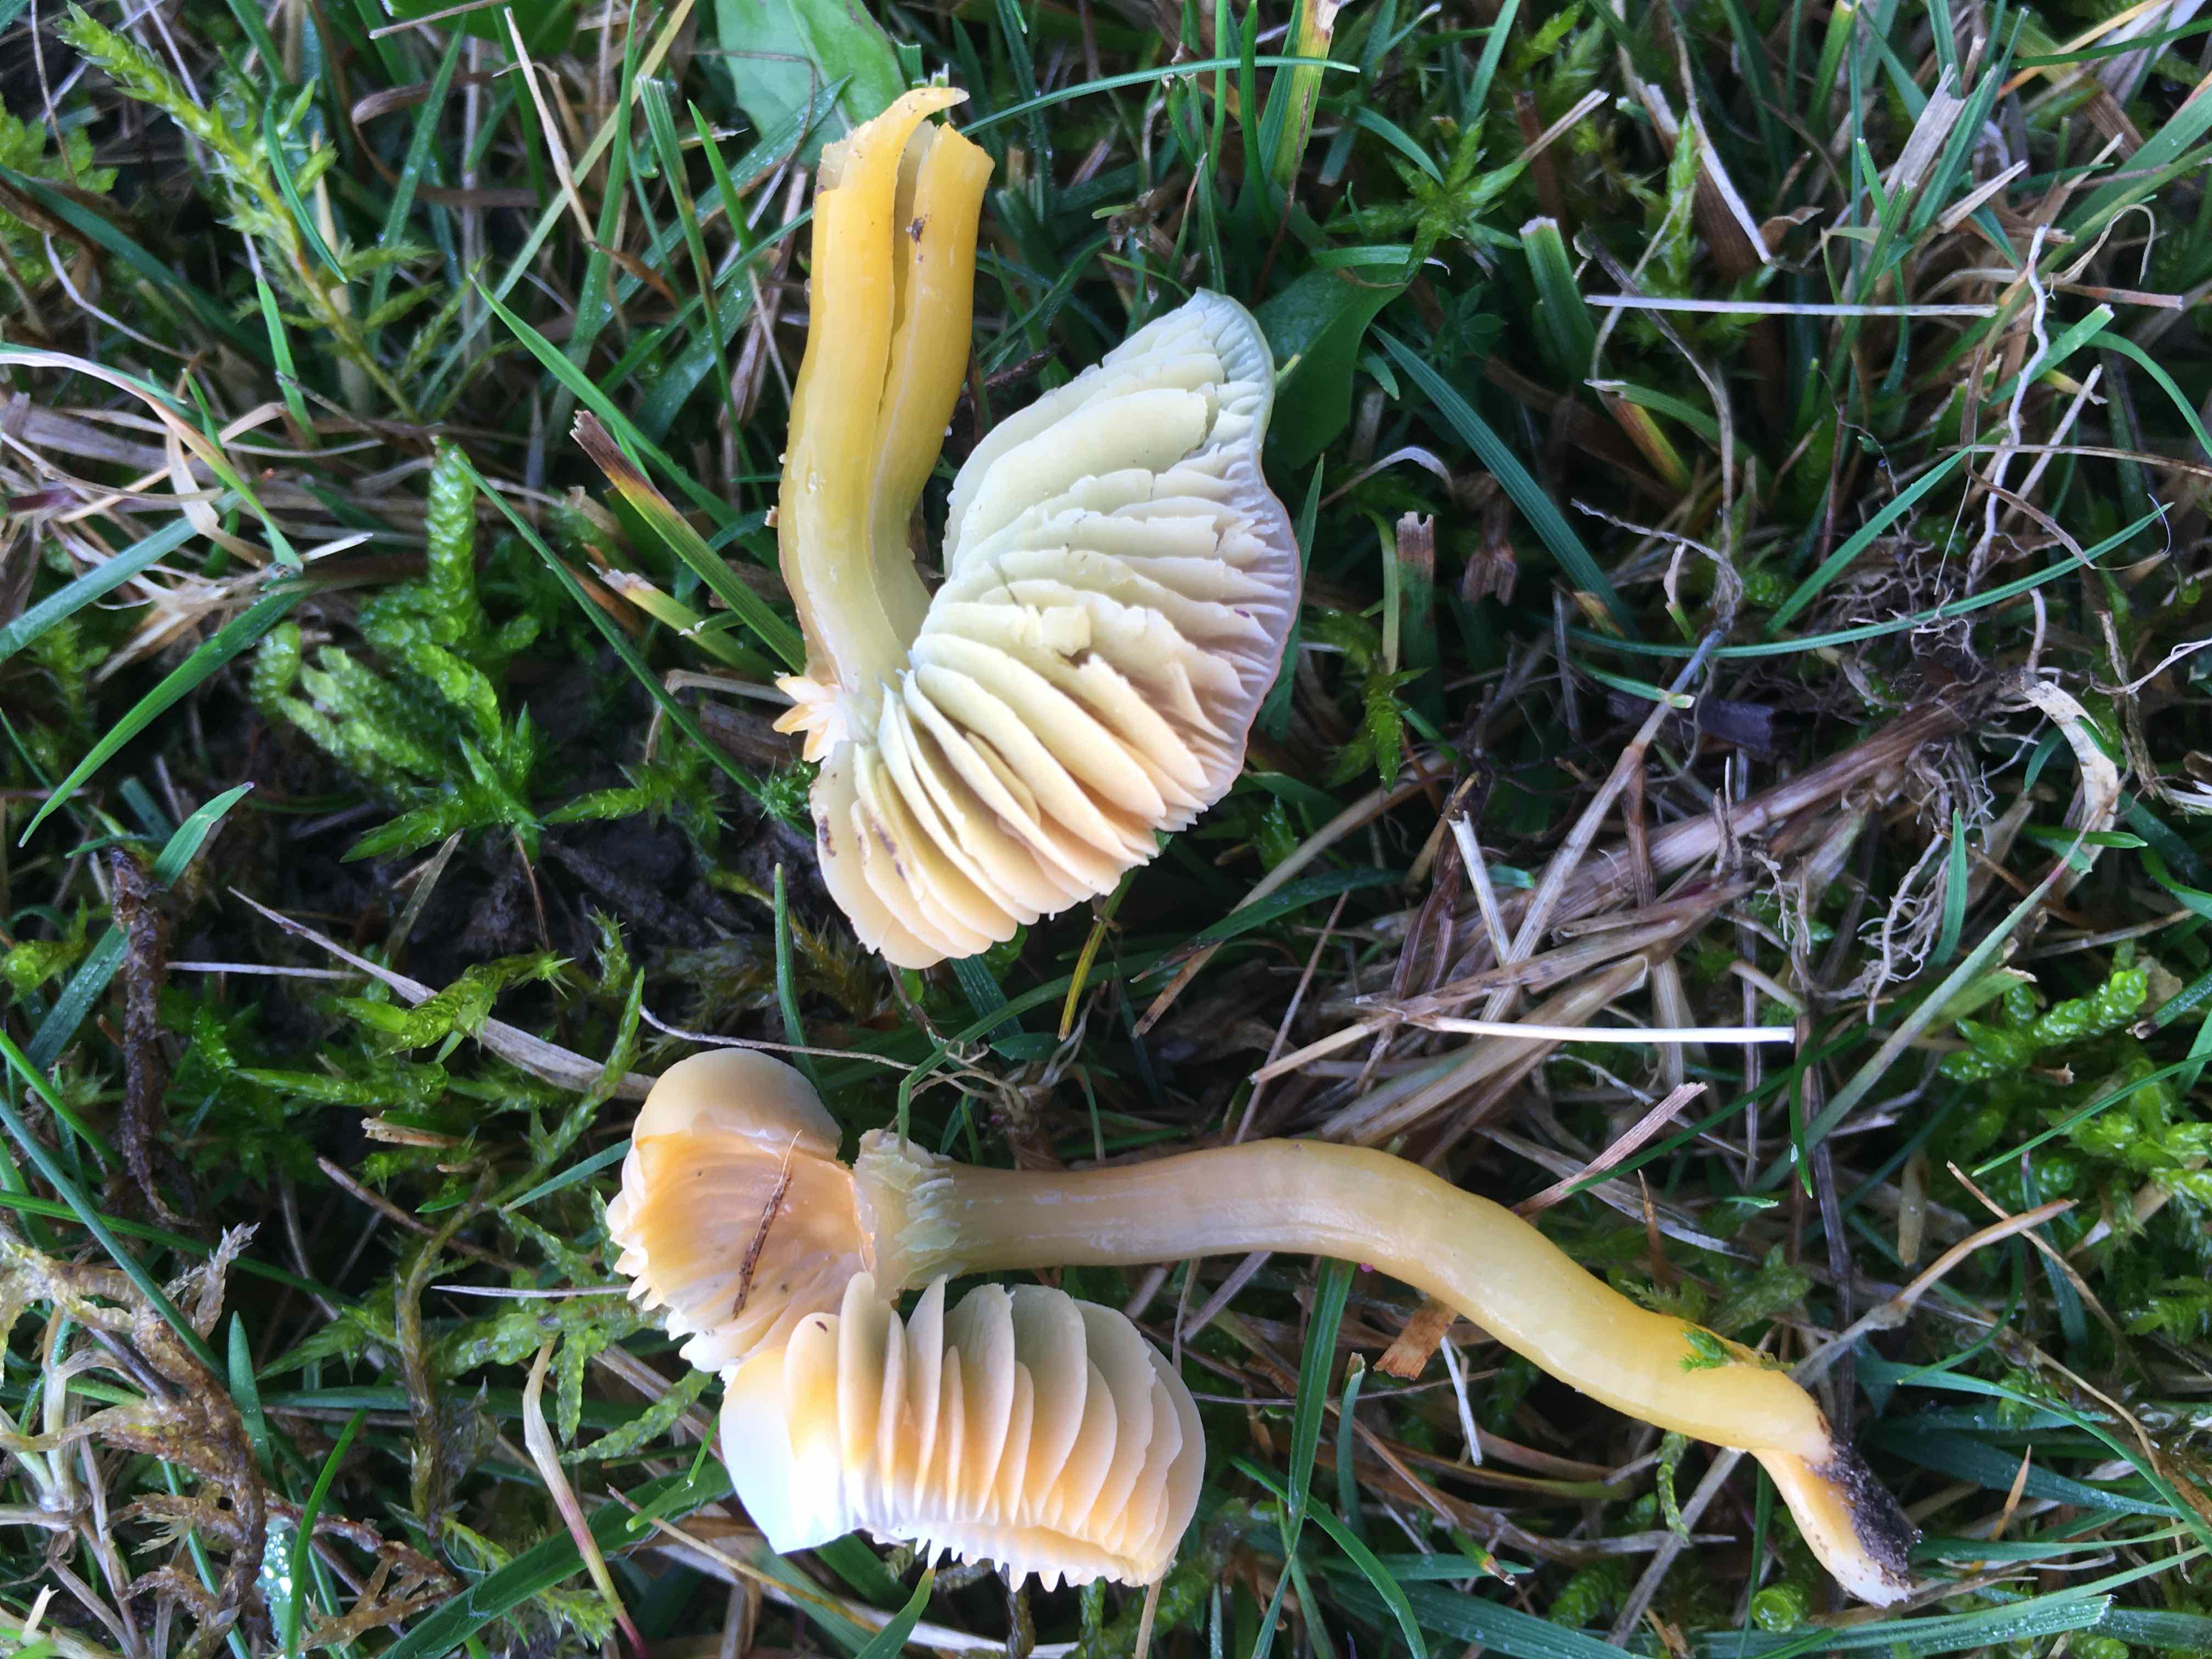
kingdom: Fungi
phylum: Basidiomycota
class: Agaricomycetes
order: Agaricales
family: Hygrophoraceae
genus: Gliophorus
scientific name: Gliophorus psittacinus
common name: papegøje-vokshat
